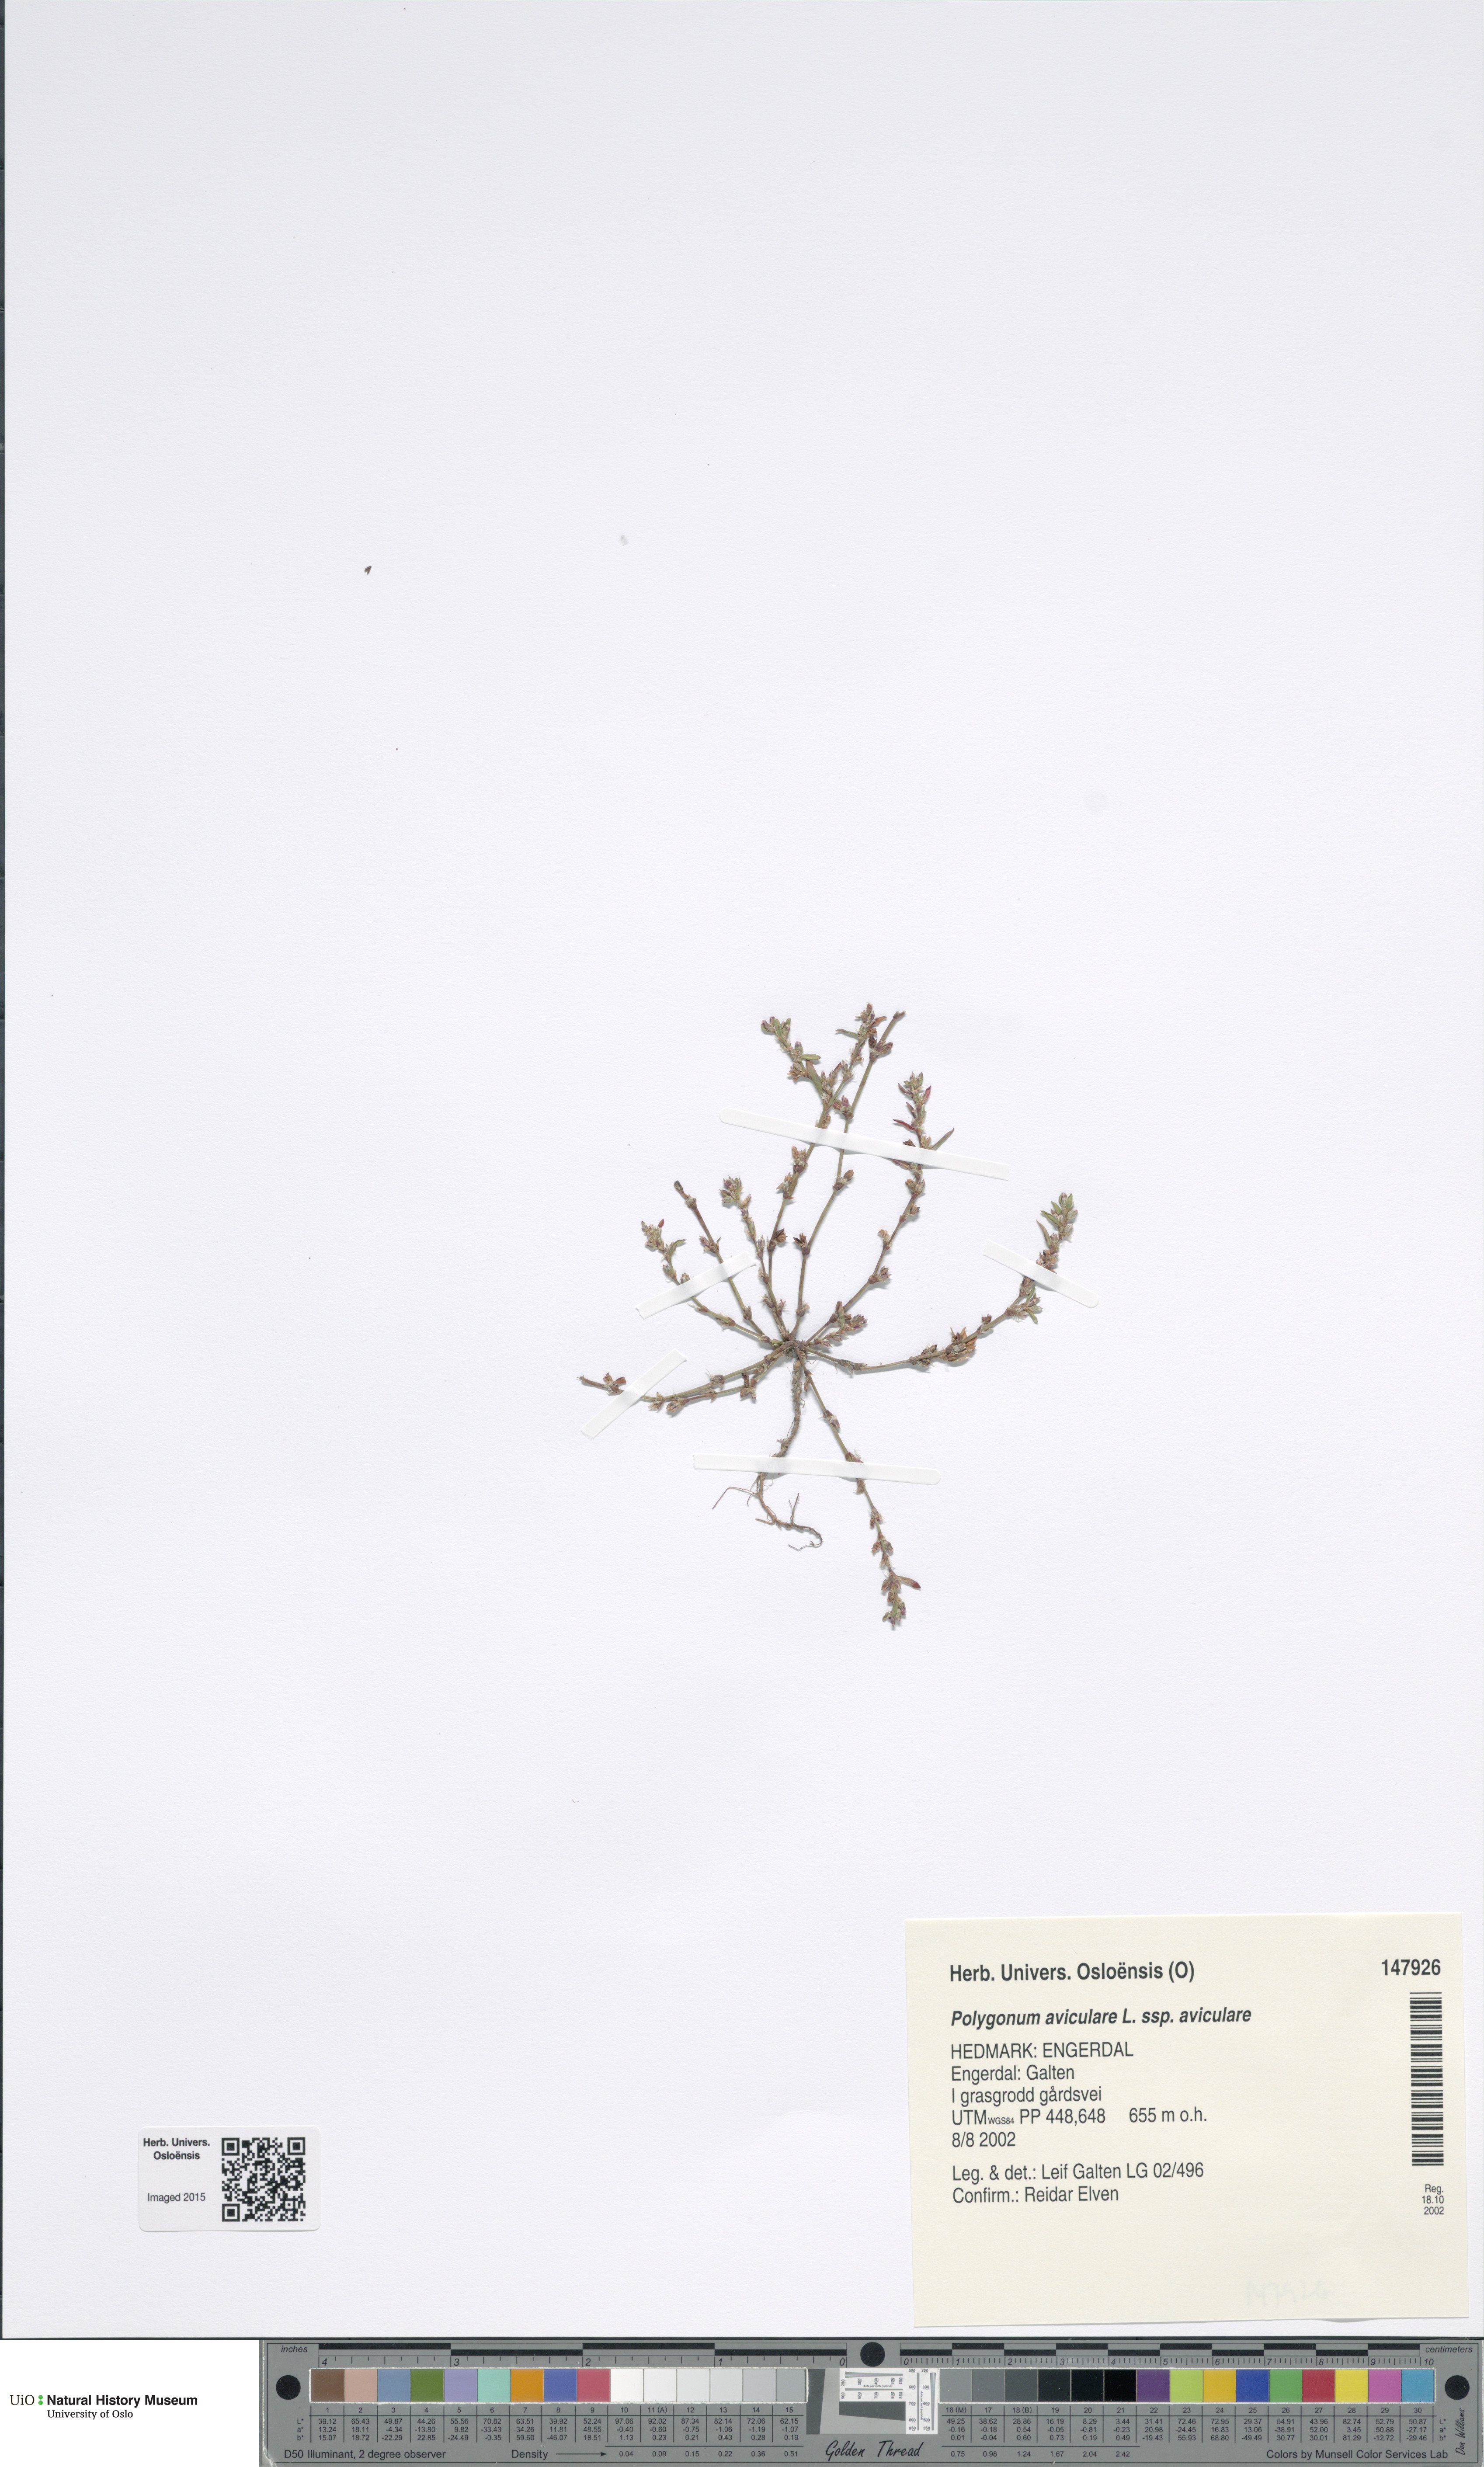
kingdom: Plantae
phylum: Tracheophyta
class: Magnoliopsida
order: Caryophyllales
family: Polygonaceae
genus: Polygonum
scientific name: Polygonum aviculare
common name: Prostrate knotweed
